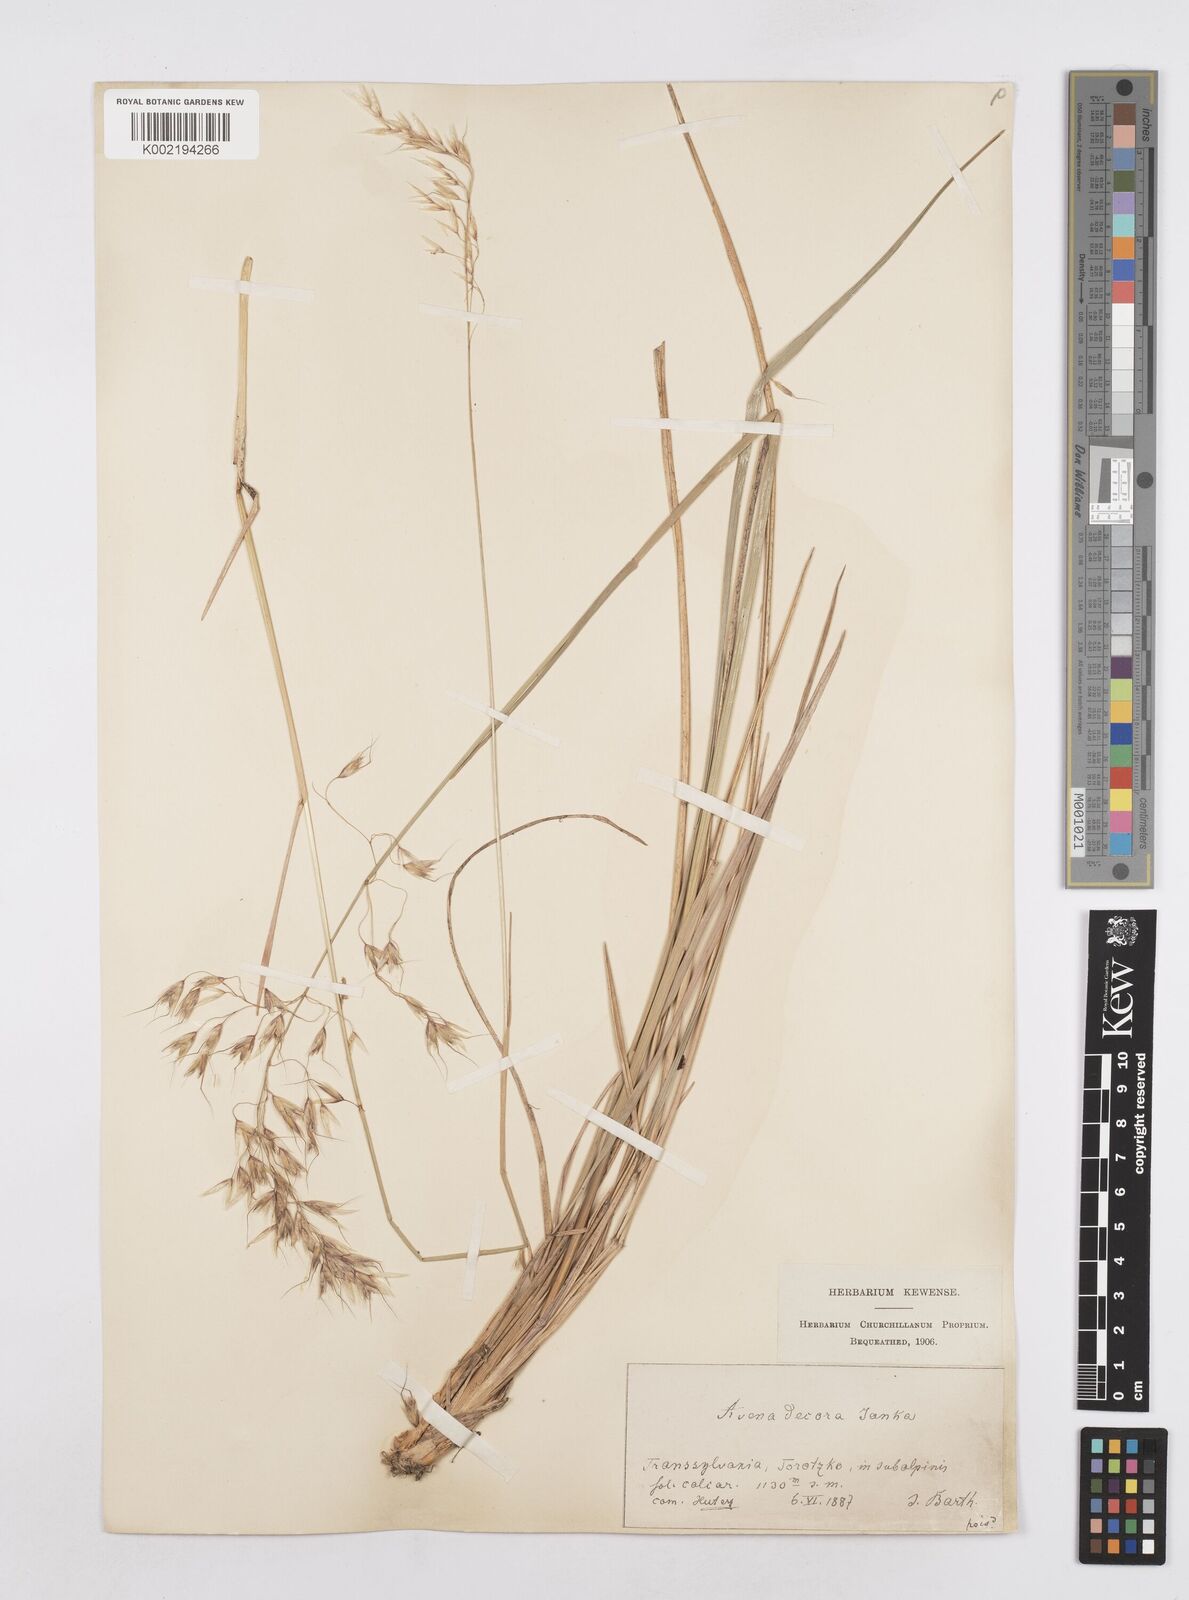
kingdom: Plantae
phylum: Tracheophyta
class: Liliopsida
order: Poales
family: Poaceae
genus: Helictotrichon
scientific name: Helictotrichon decorum
